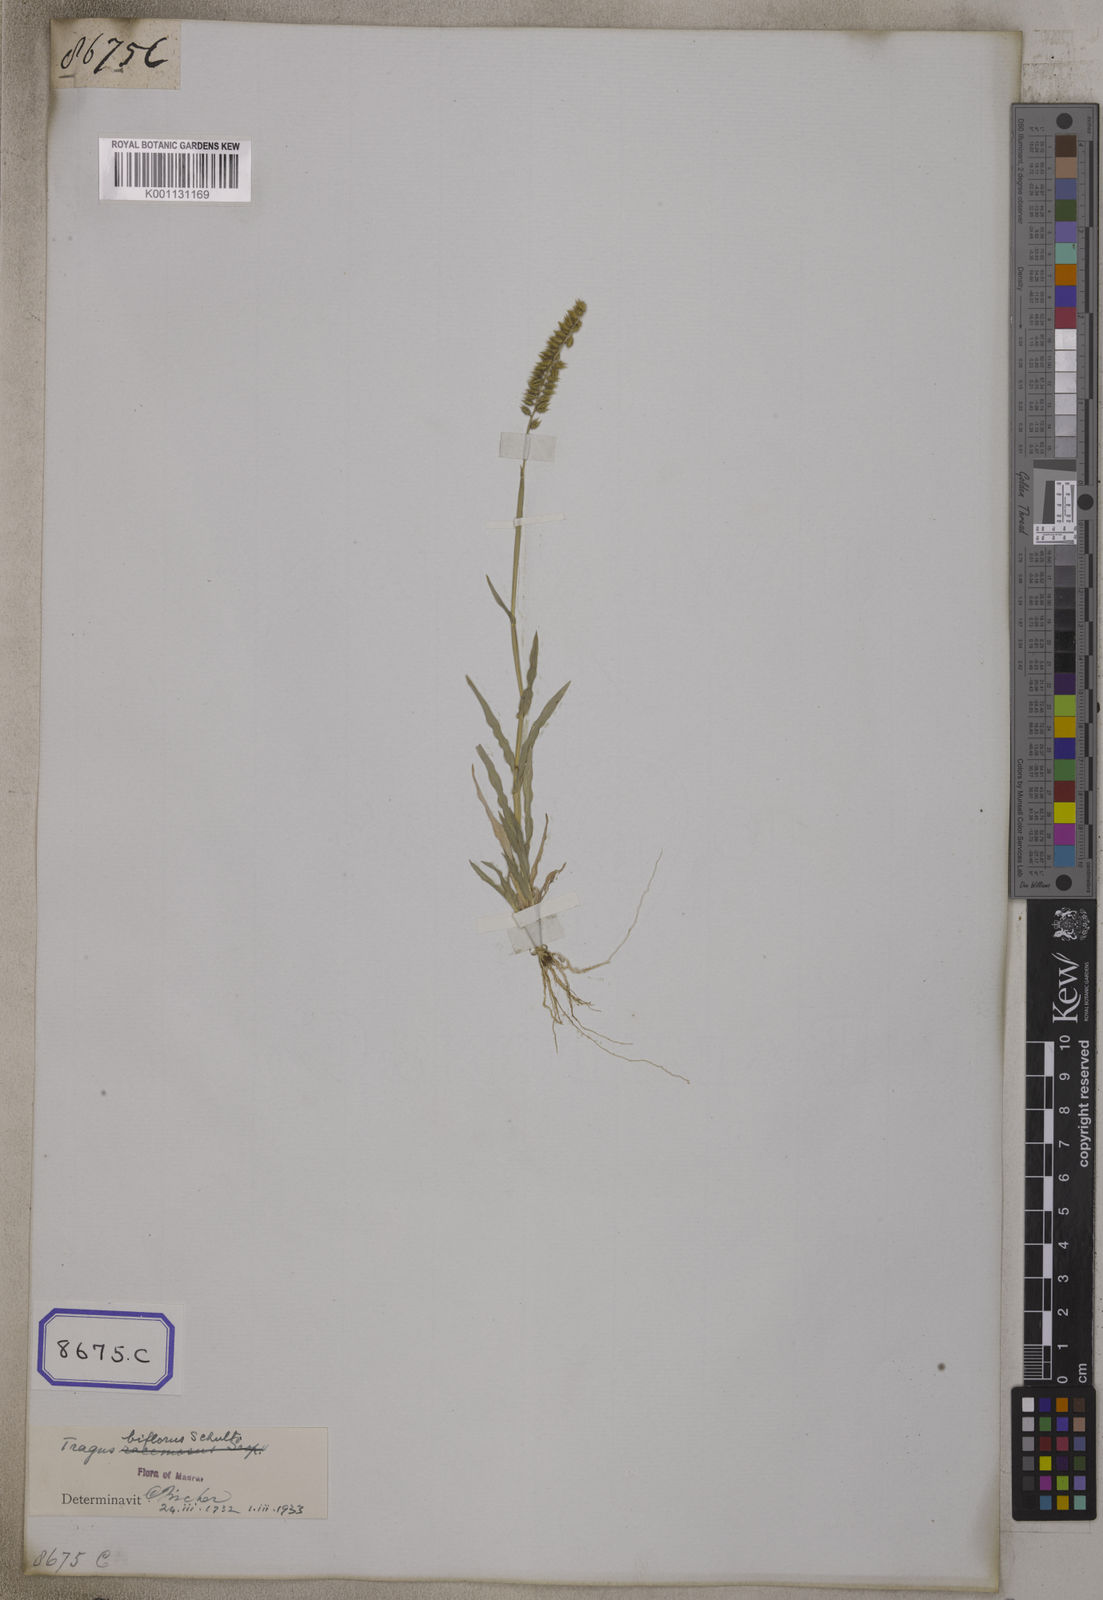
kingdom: Plantae
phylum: Tracheophyta
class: Liliopsida
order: Poales
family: Poaceae
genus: Tragus
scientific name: Tragus racemosus
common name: European bur-grass
